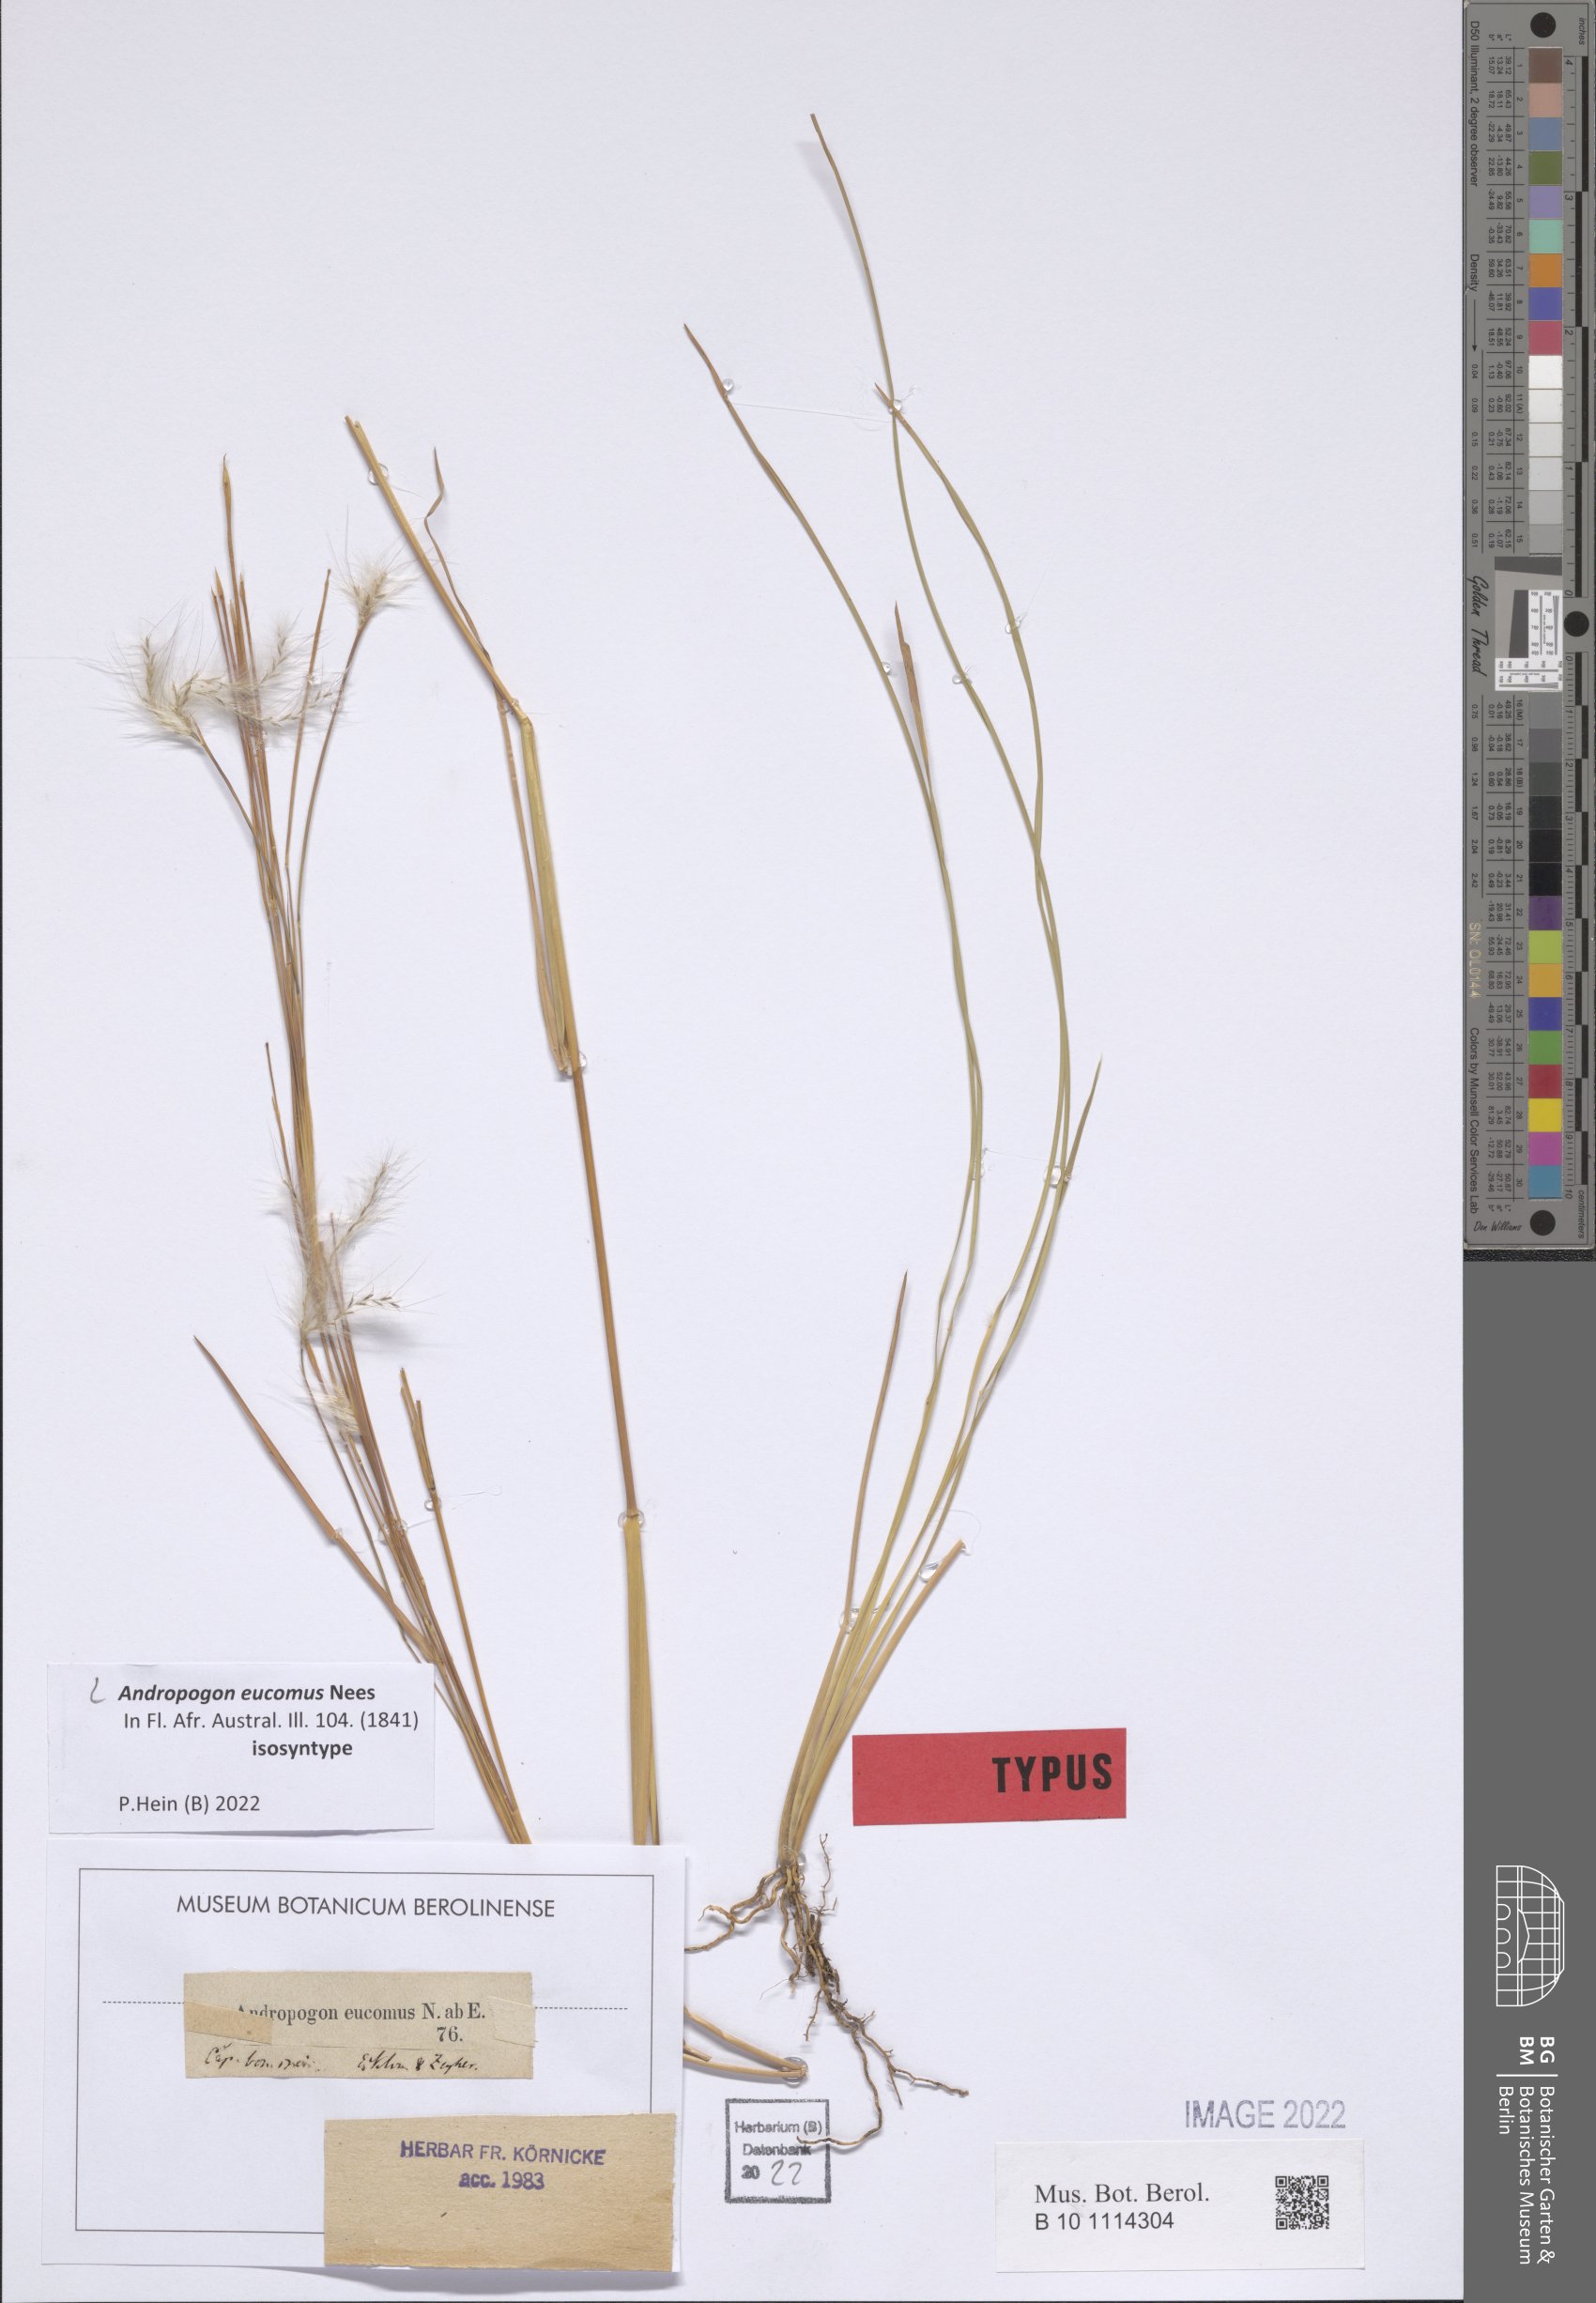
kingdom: Plantae
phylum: Tracheophyta
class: Liliopsida
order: Poales
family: Poaceae
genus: Andropogon
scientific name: Andropogon eucomus
